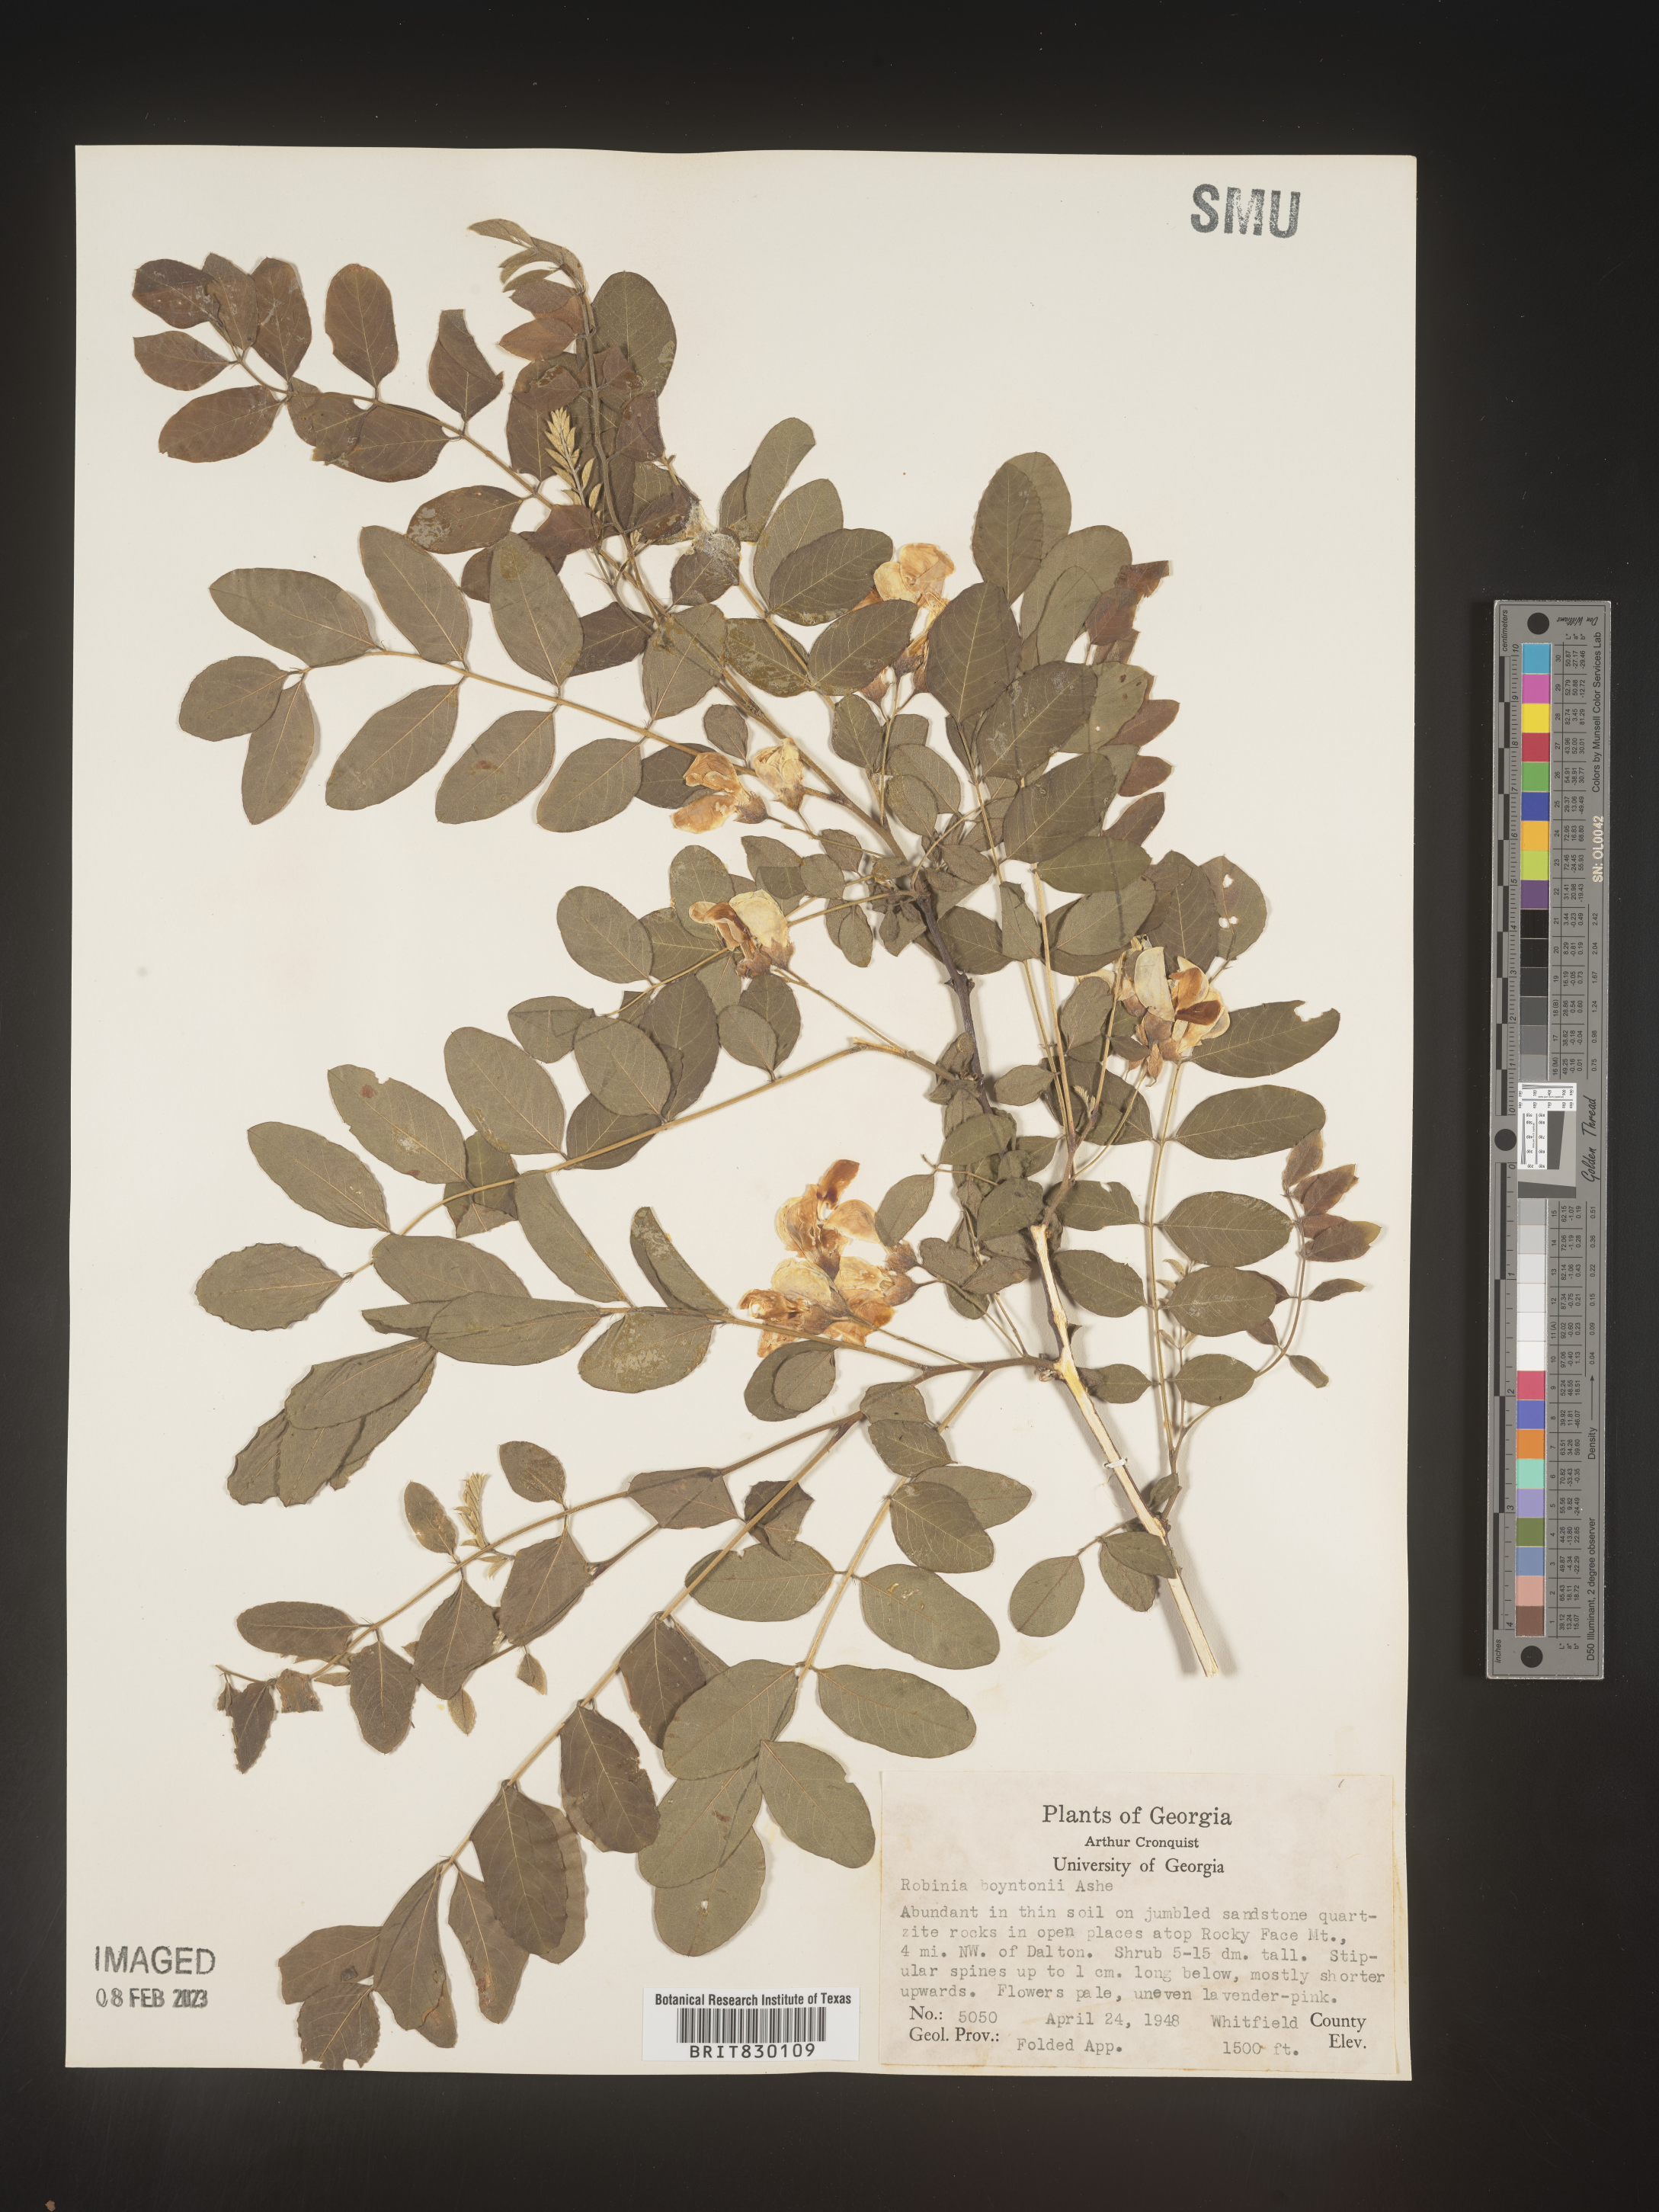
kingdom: Plantae
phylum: Tracheophyta
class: Magnoliopsida
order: Fabales
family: Fabaceae
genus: Robinia
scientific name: Robinia
